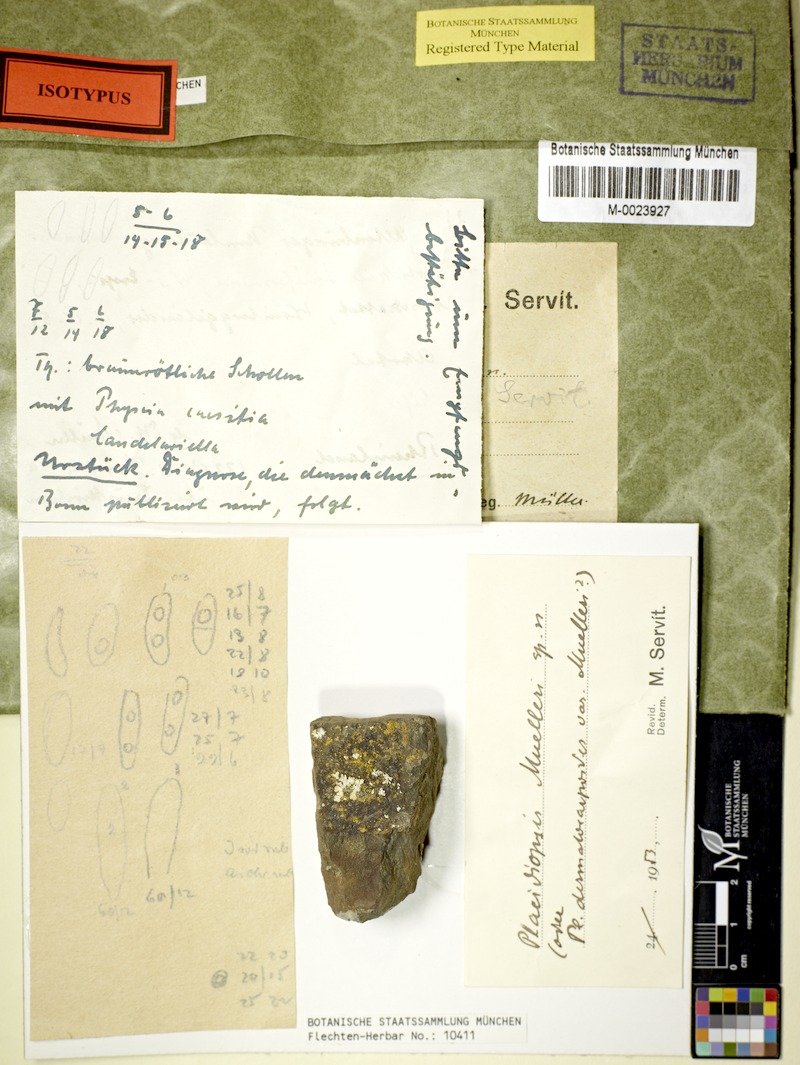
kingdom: Fungi
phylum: Ascomycota
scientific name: Ascomycota
